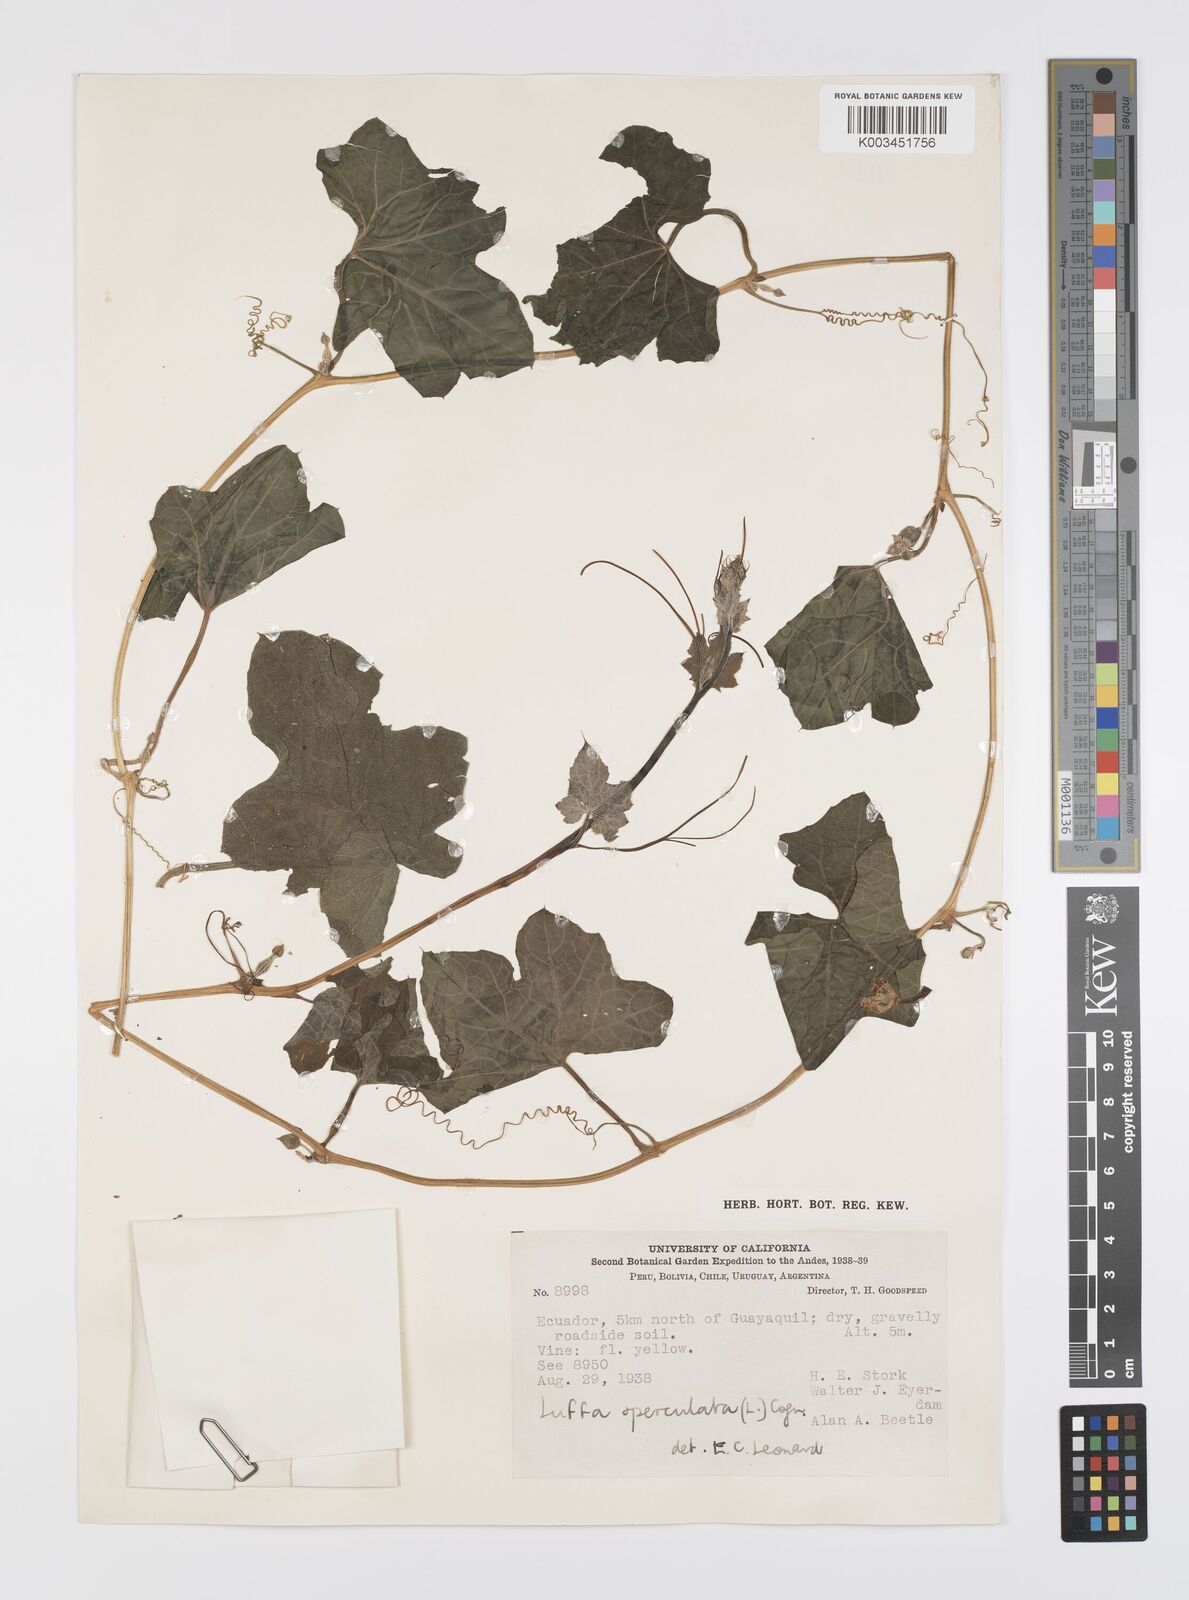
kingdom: Plantae
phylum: Tracheophyta
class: Magnoliopsida
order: Cucurbitales
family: Cucurbitaceae
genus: Luffa
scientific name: Luffa operculata
